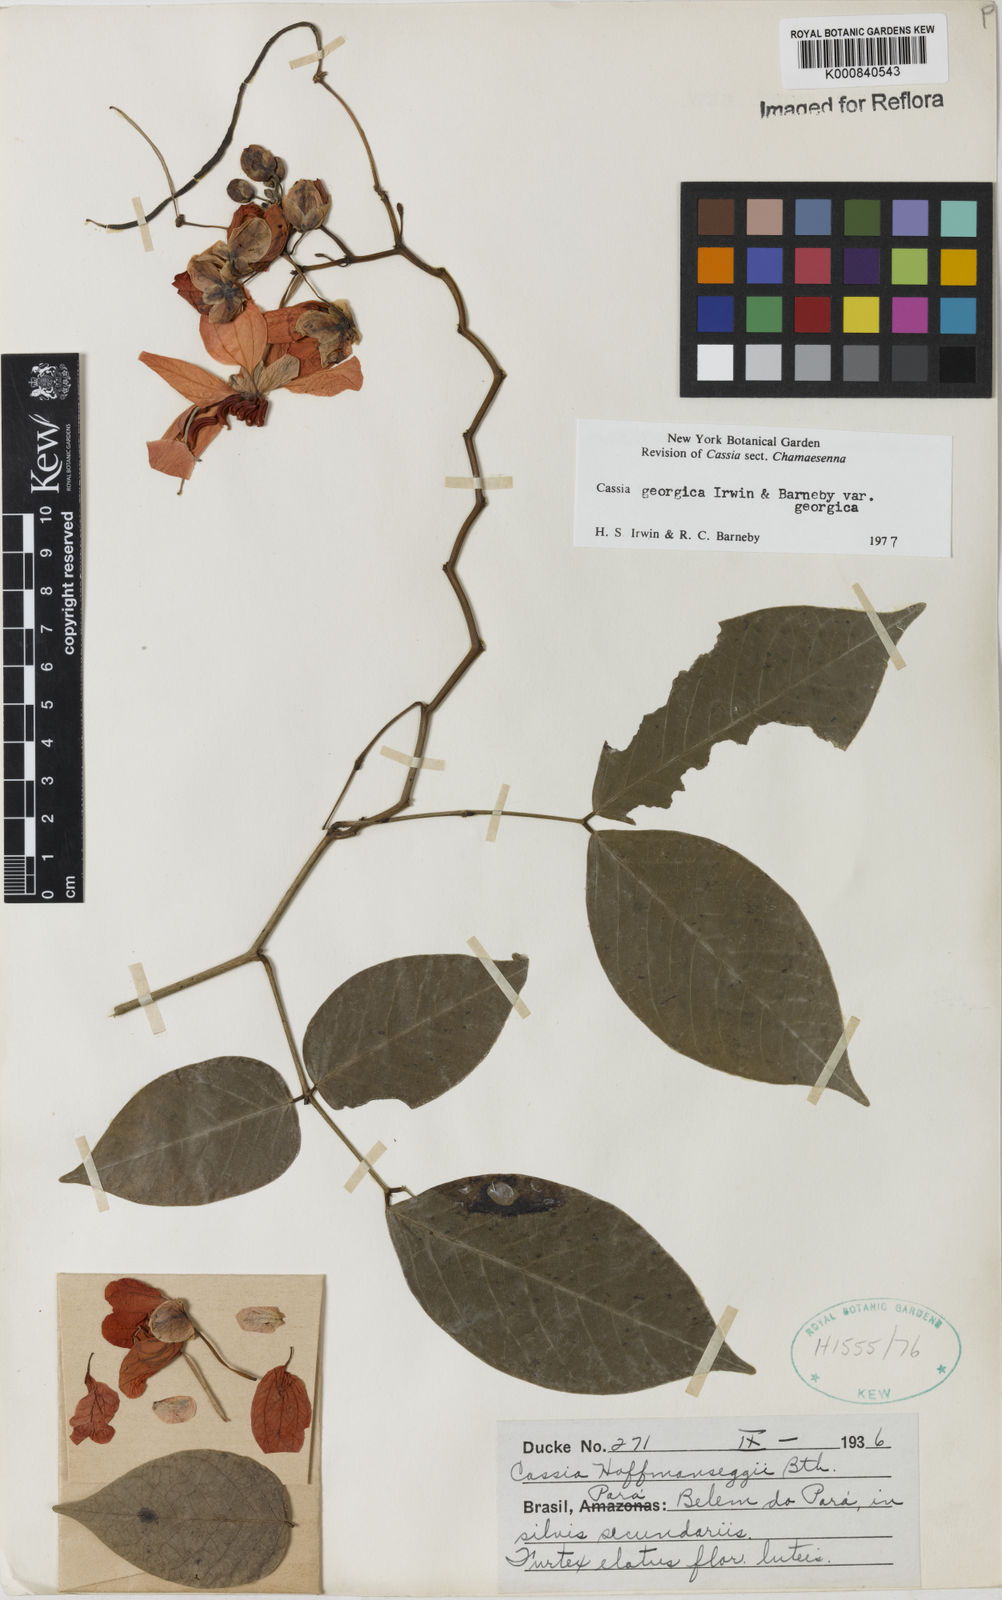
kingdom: Plantae
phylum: Tracheophyta
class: Magnoliopsida
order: Fabales
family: Fabaceae
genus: Senna
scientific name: Senna georgica
